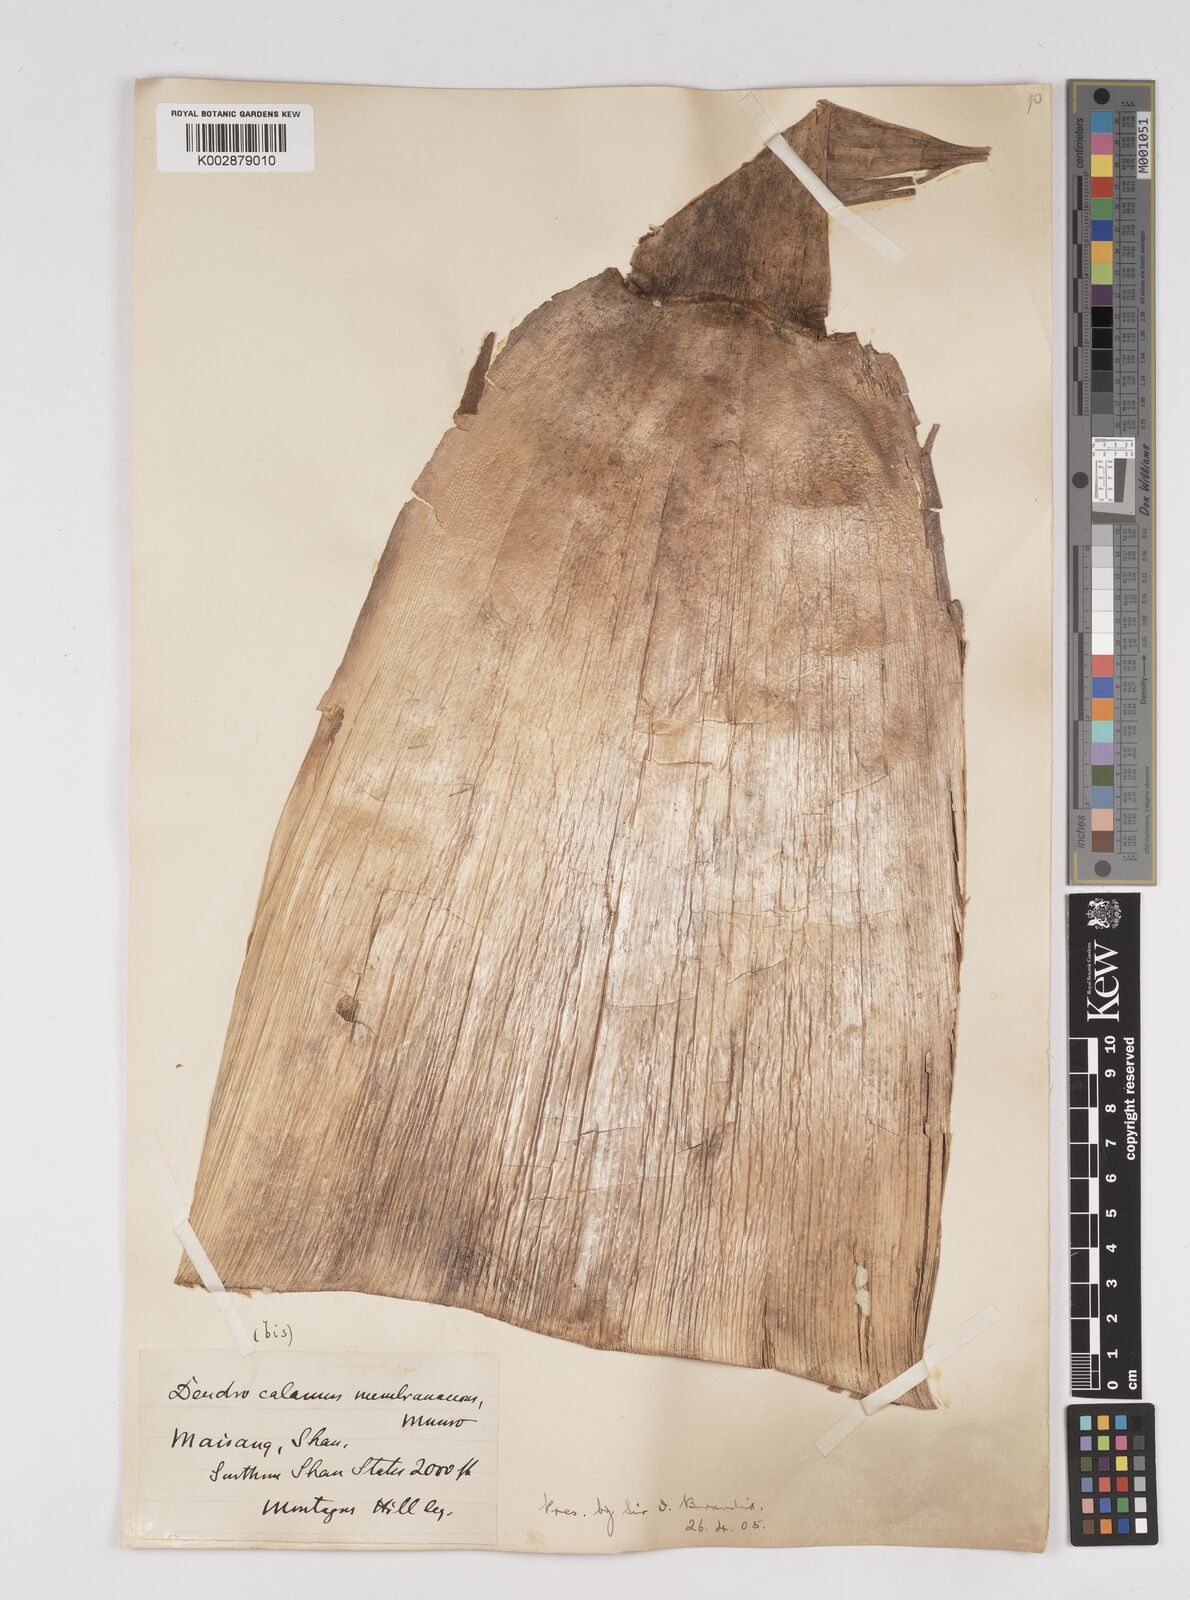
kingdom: Plantae
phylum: Tracheophyta
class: Liliopsida
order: Poales
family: Poaceae
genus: Dendrocalamus
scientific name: Dendrocalamus membranaceus
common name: White bamboo
